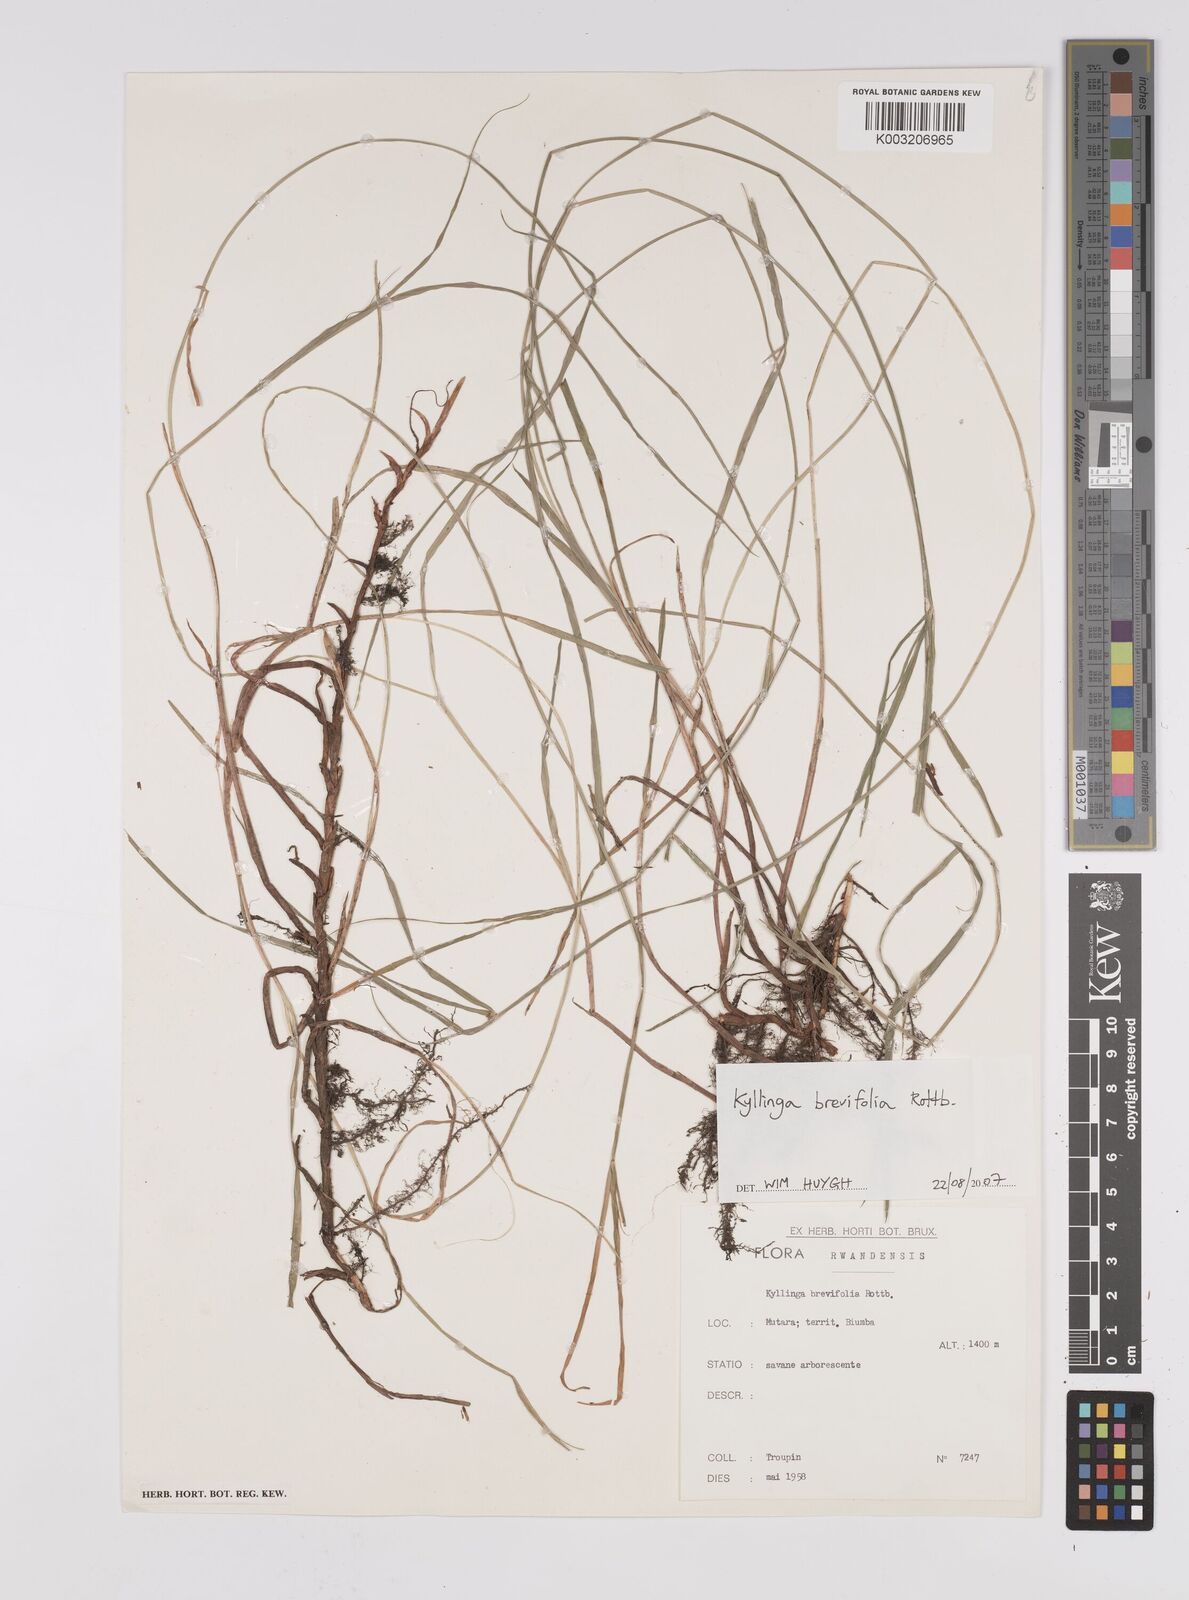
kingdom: Plantae
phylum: Tracheophyta
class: Liliopsida
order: Poales
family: Cyperaceae
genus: Cyperus
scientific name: Cyperus brevifolius
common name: Globe kyllinga
